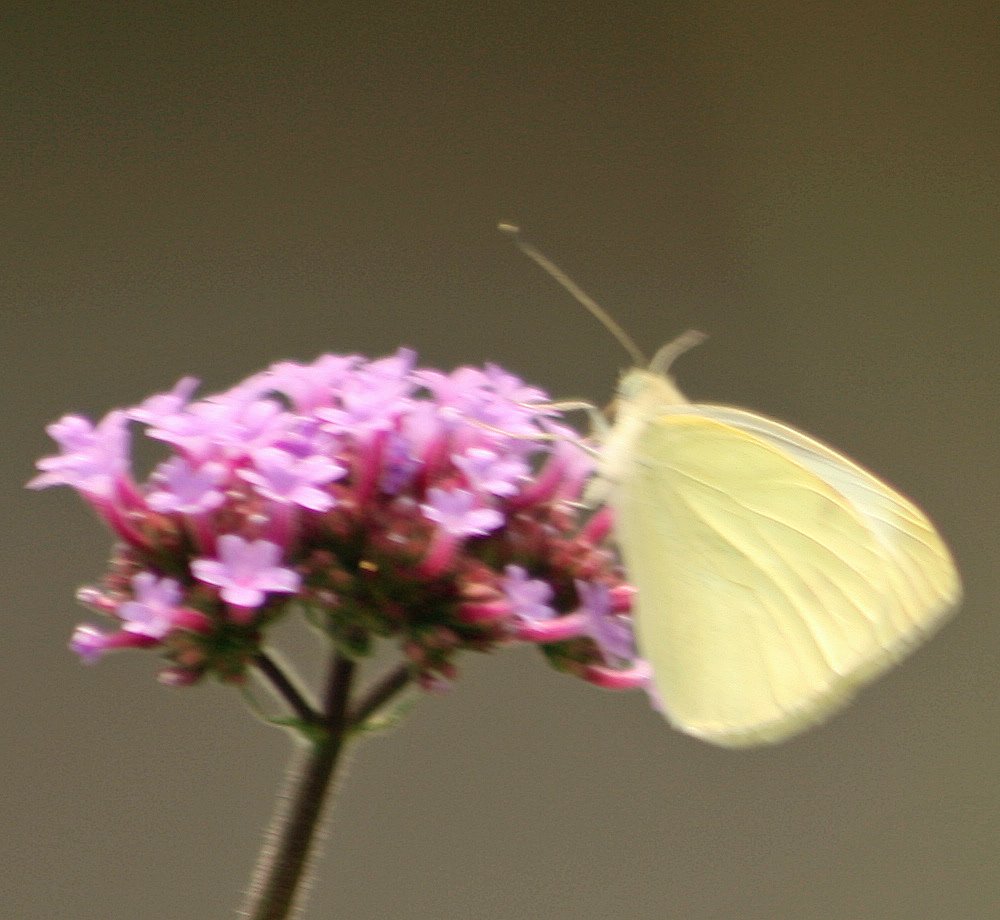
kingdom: Animalia
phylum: Arthropoda
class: Insecta
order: Lepidoptera
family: Pieridae
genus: Pieris
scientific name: Pieris rapae
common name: Cabbage White
